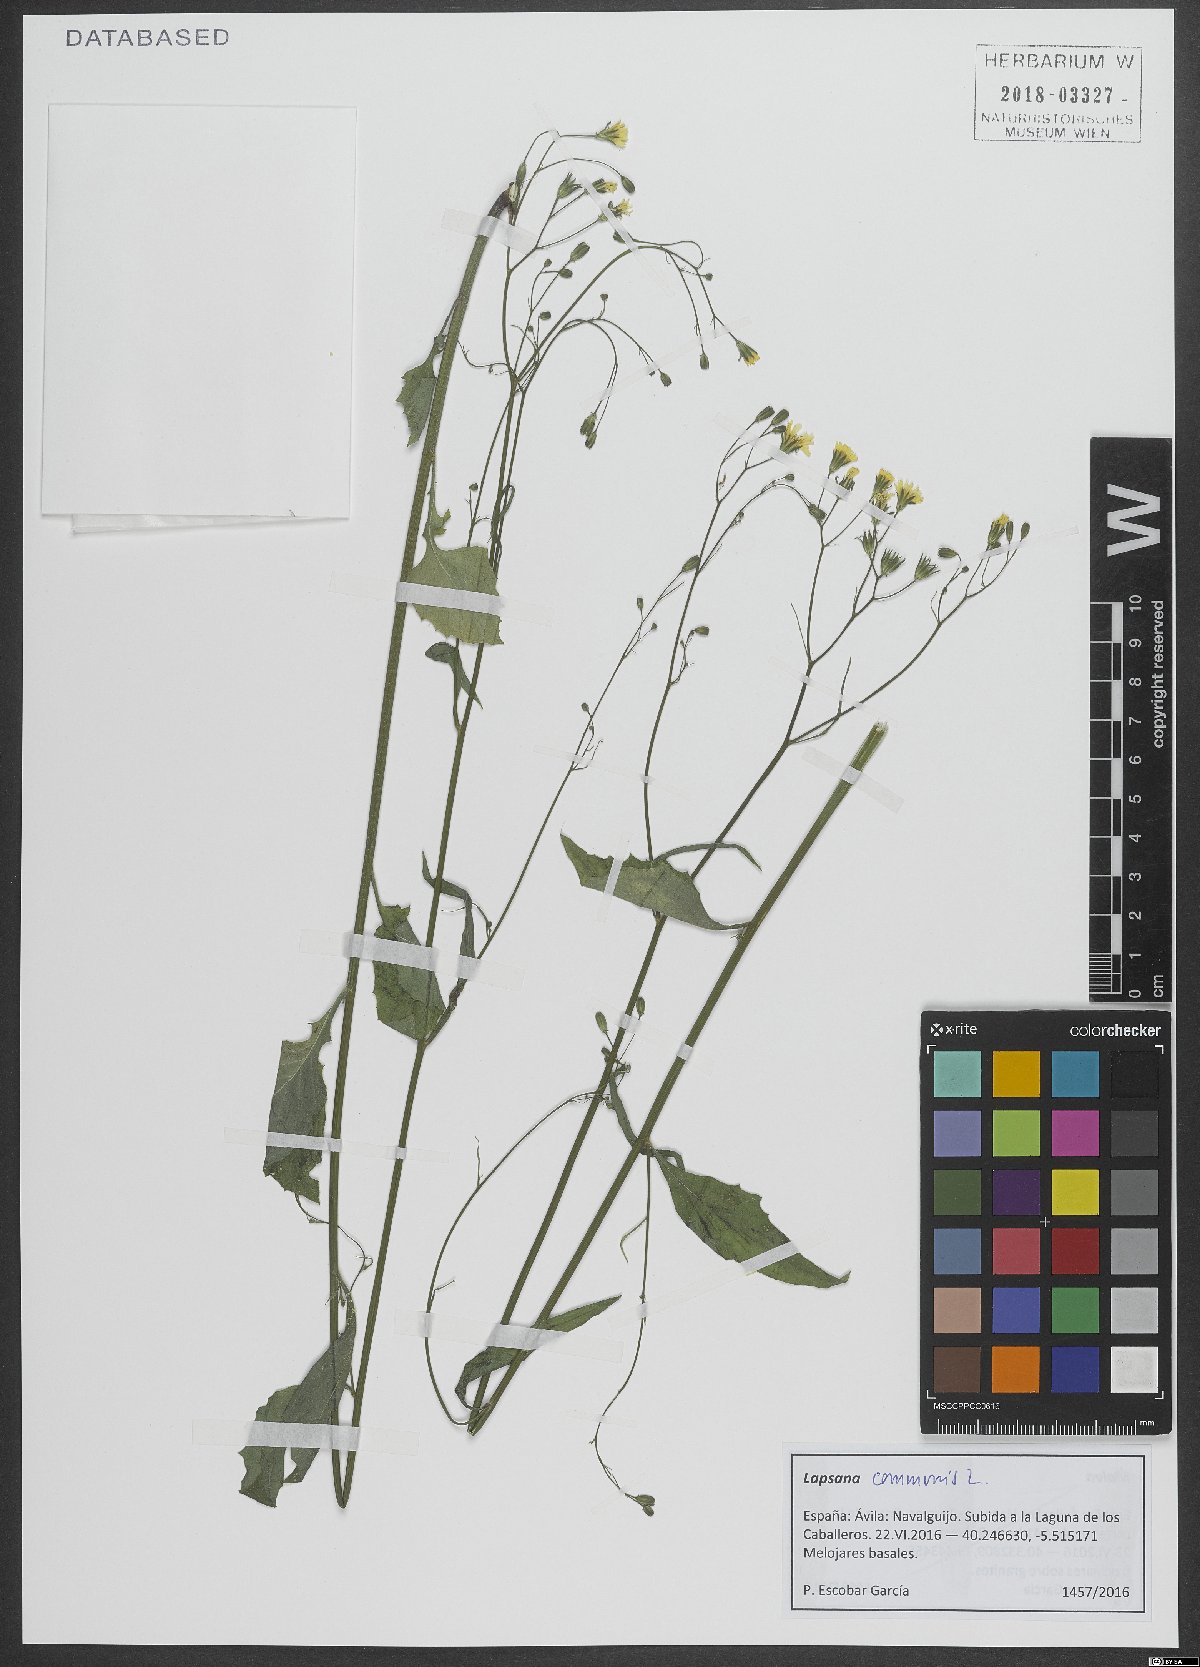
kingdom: Plantae
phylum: Tracheophyta
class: Magnoliopsida
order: Asterales
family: Asteraceae
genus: Lapsana
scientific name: Lapsana communis
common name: Nipplewort
